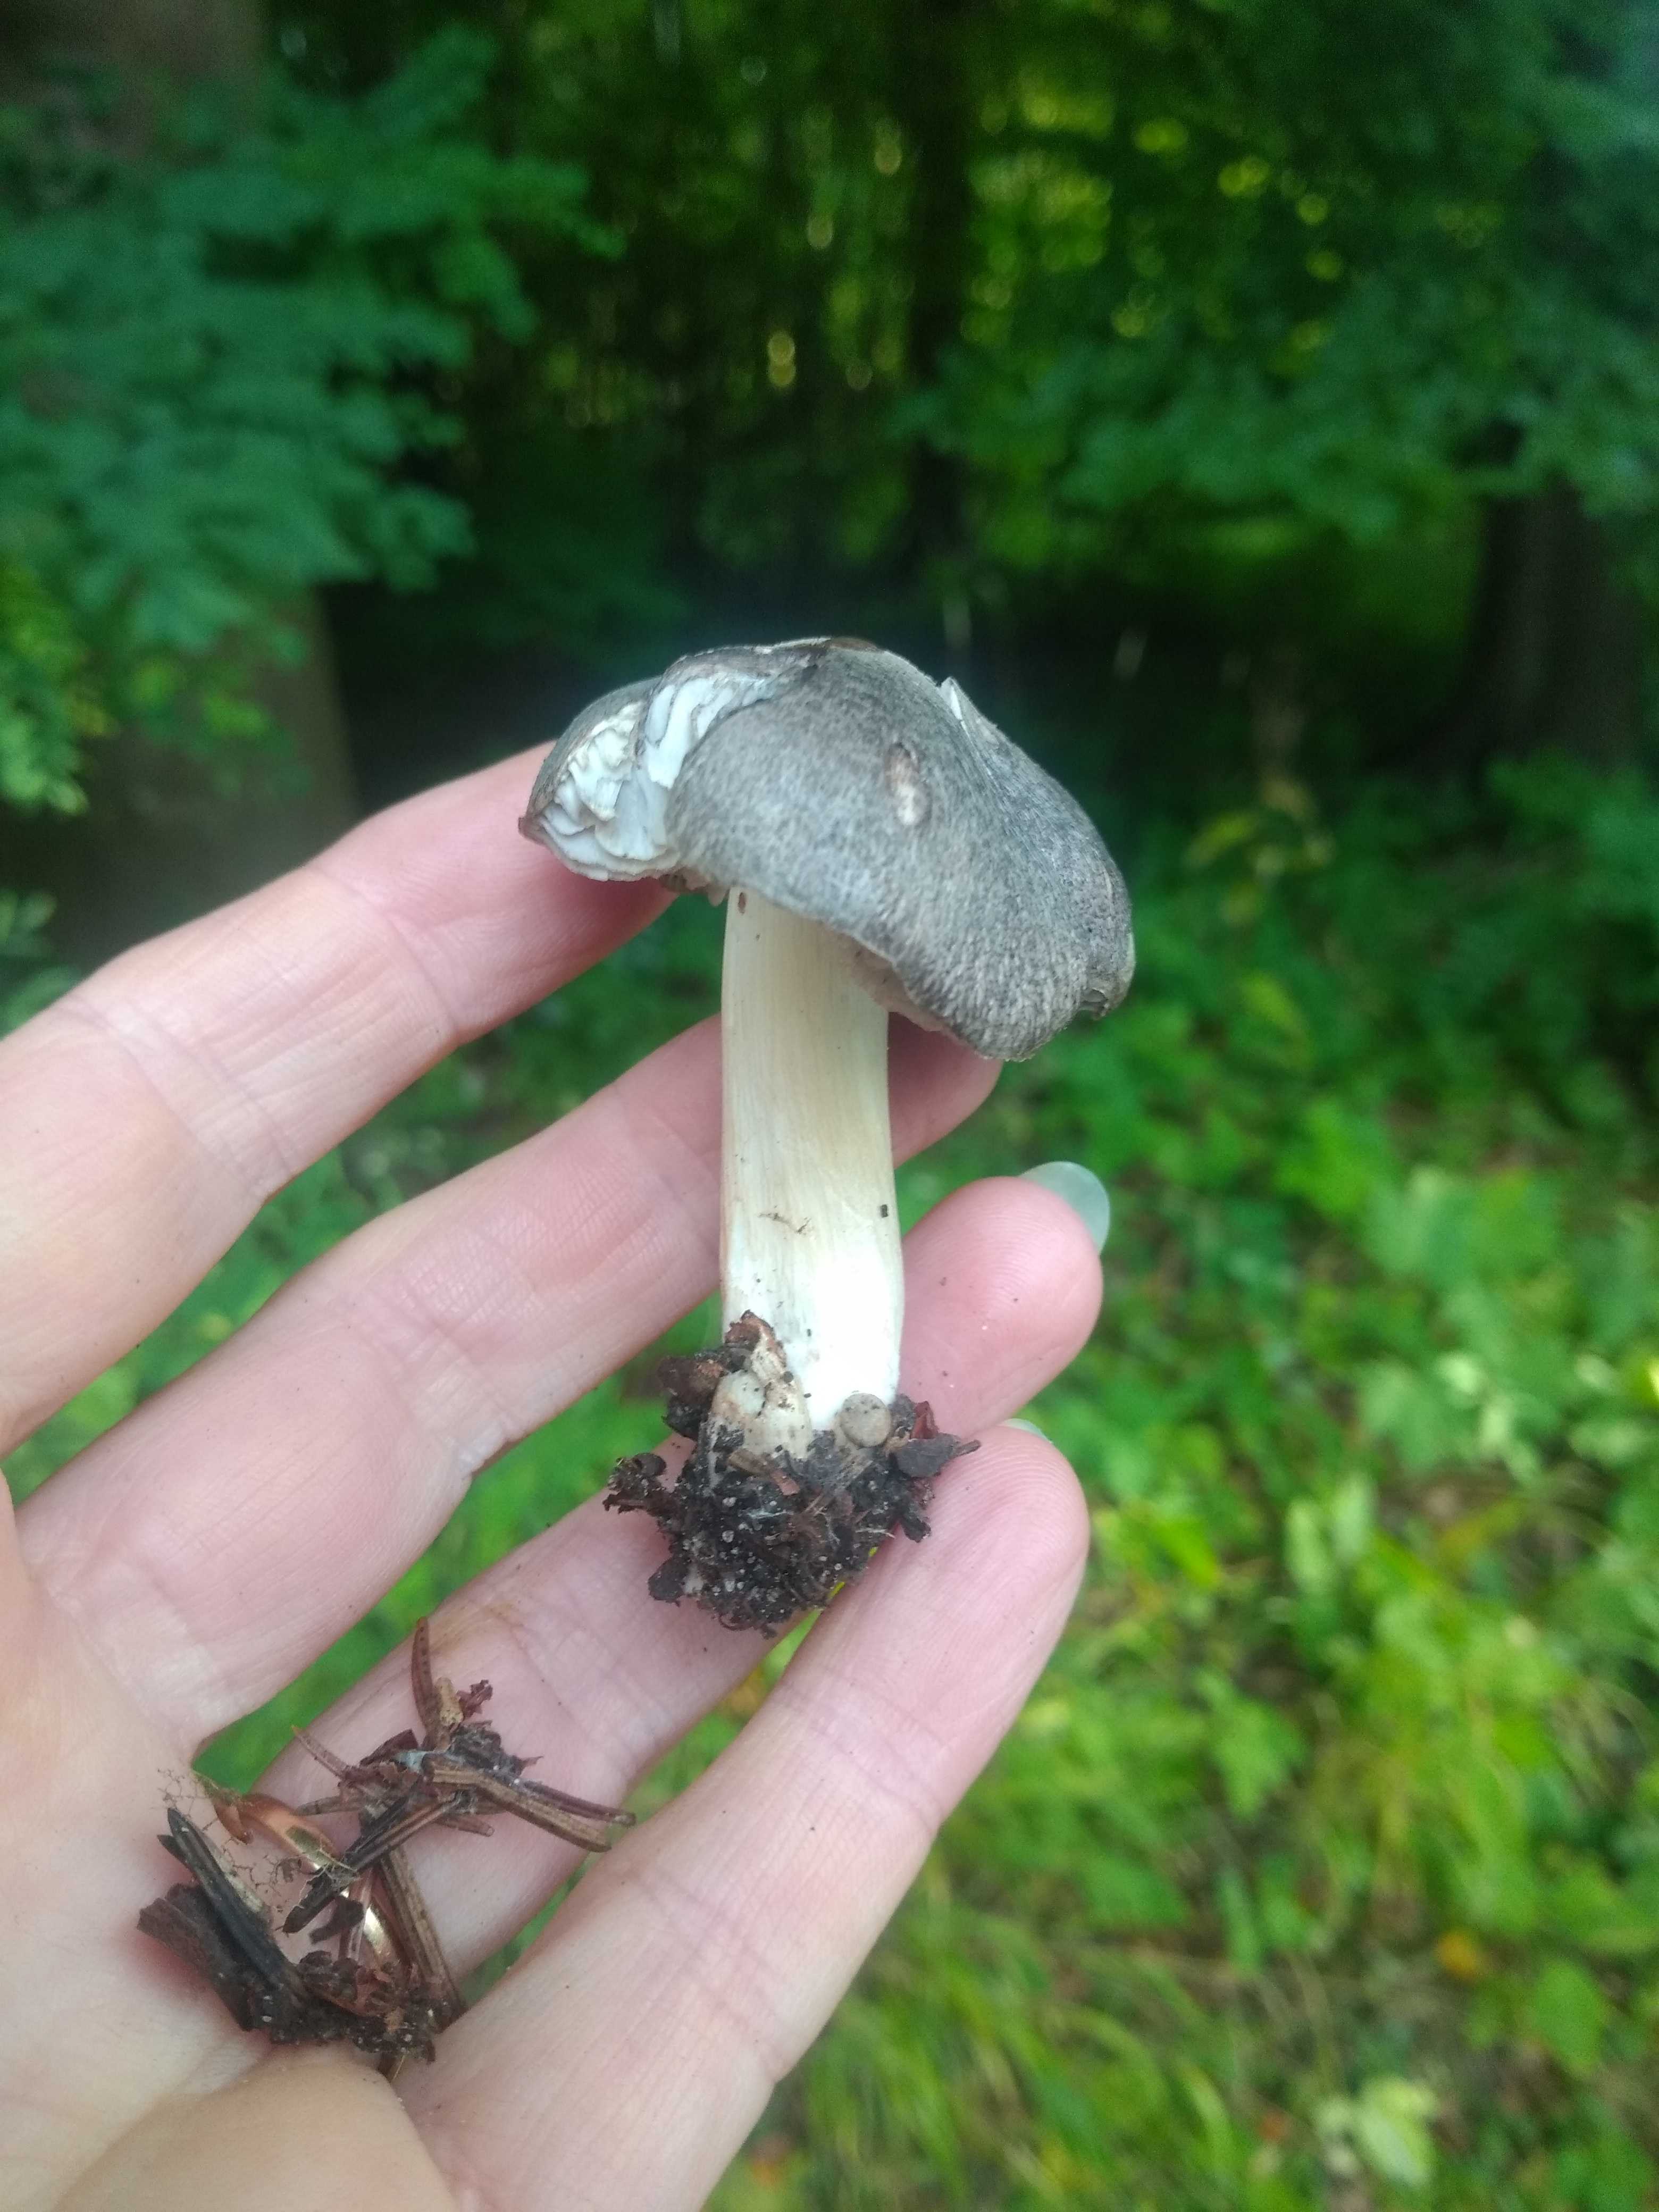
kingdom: Fungi
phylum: Basidiomycota
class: Agaricomycetes
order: Agaricales
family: Tricholomataceae
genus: Tricholoma
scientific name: Tricholoma
